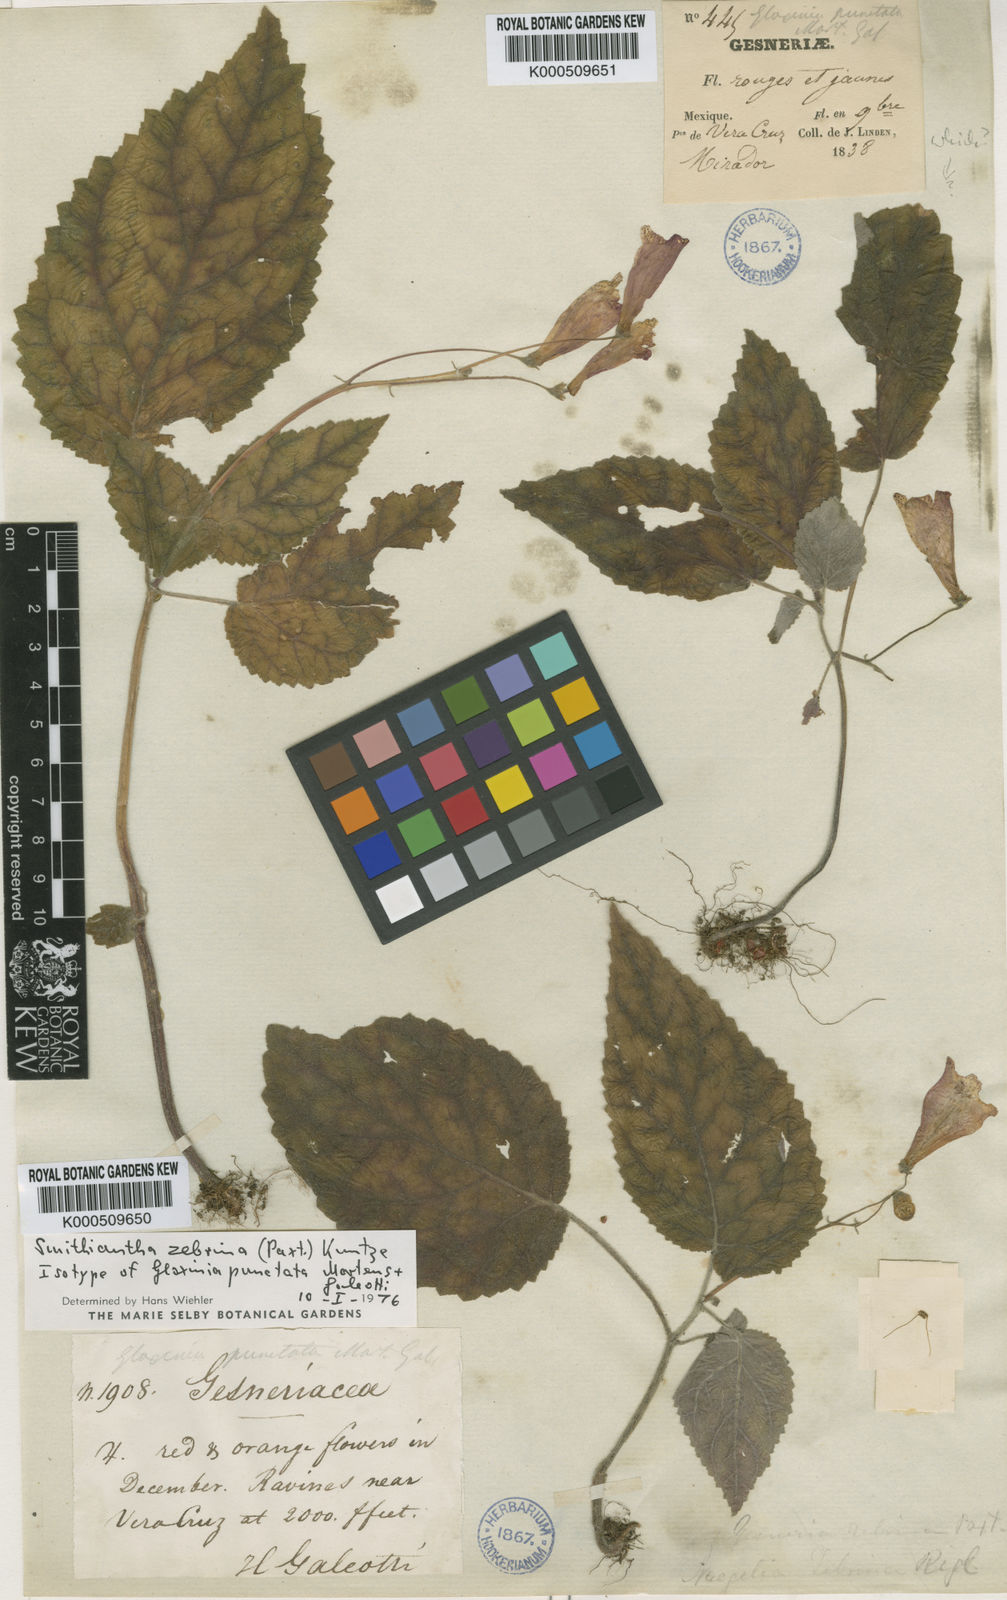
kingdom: Plantae
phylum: Tracheophyta
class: Magnoliopsida
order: Lamiales
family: Gesneriaceae
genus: Smithiantha
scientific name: Smithiantha zebrina
